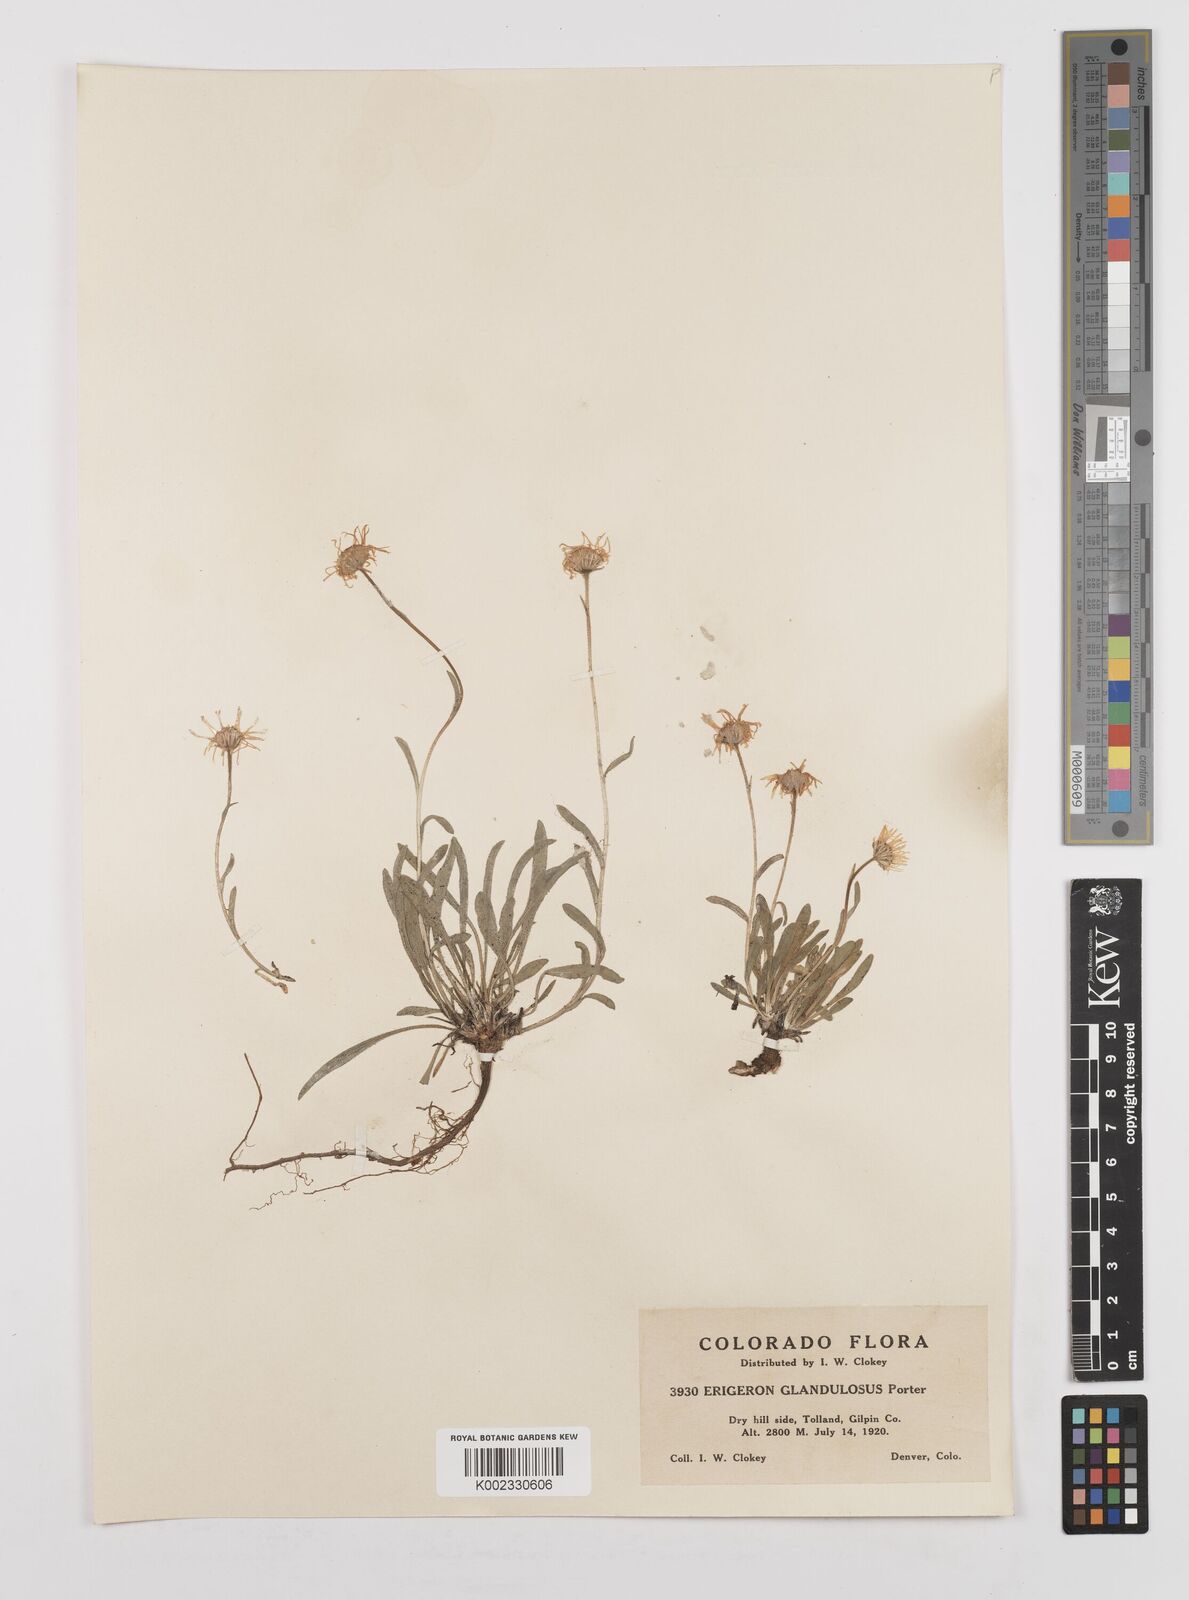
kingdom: Plantae
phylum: Tracheophyta
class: Magnoliopsida
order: Asterales
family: Asteraceae
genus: Erigeron
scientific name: Erigeron vetensis
